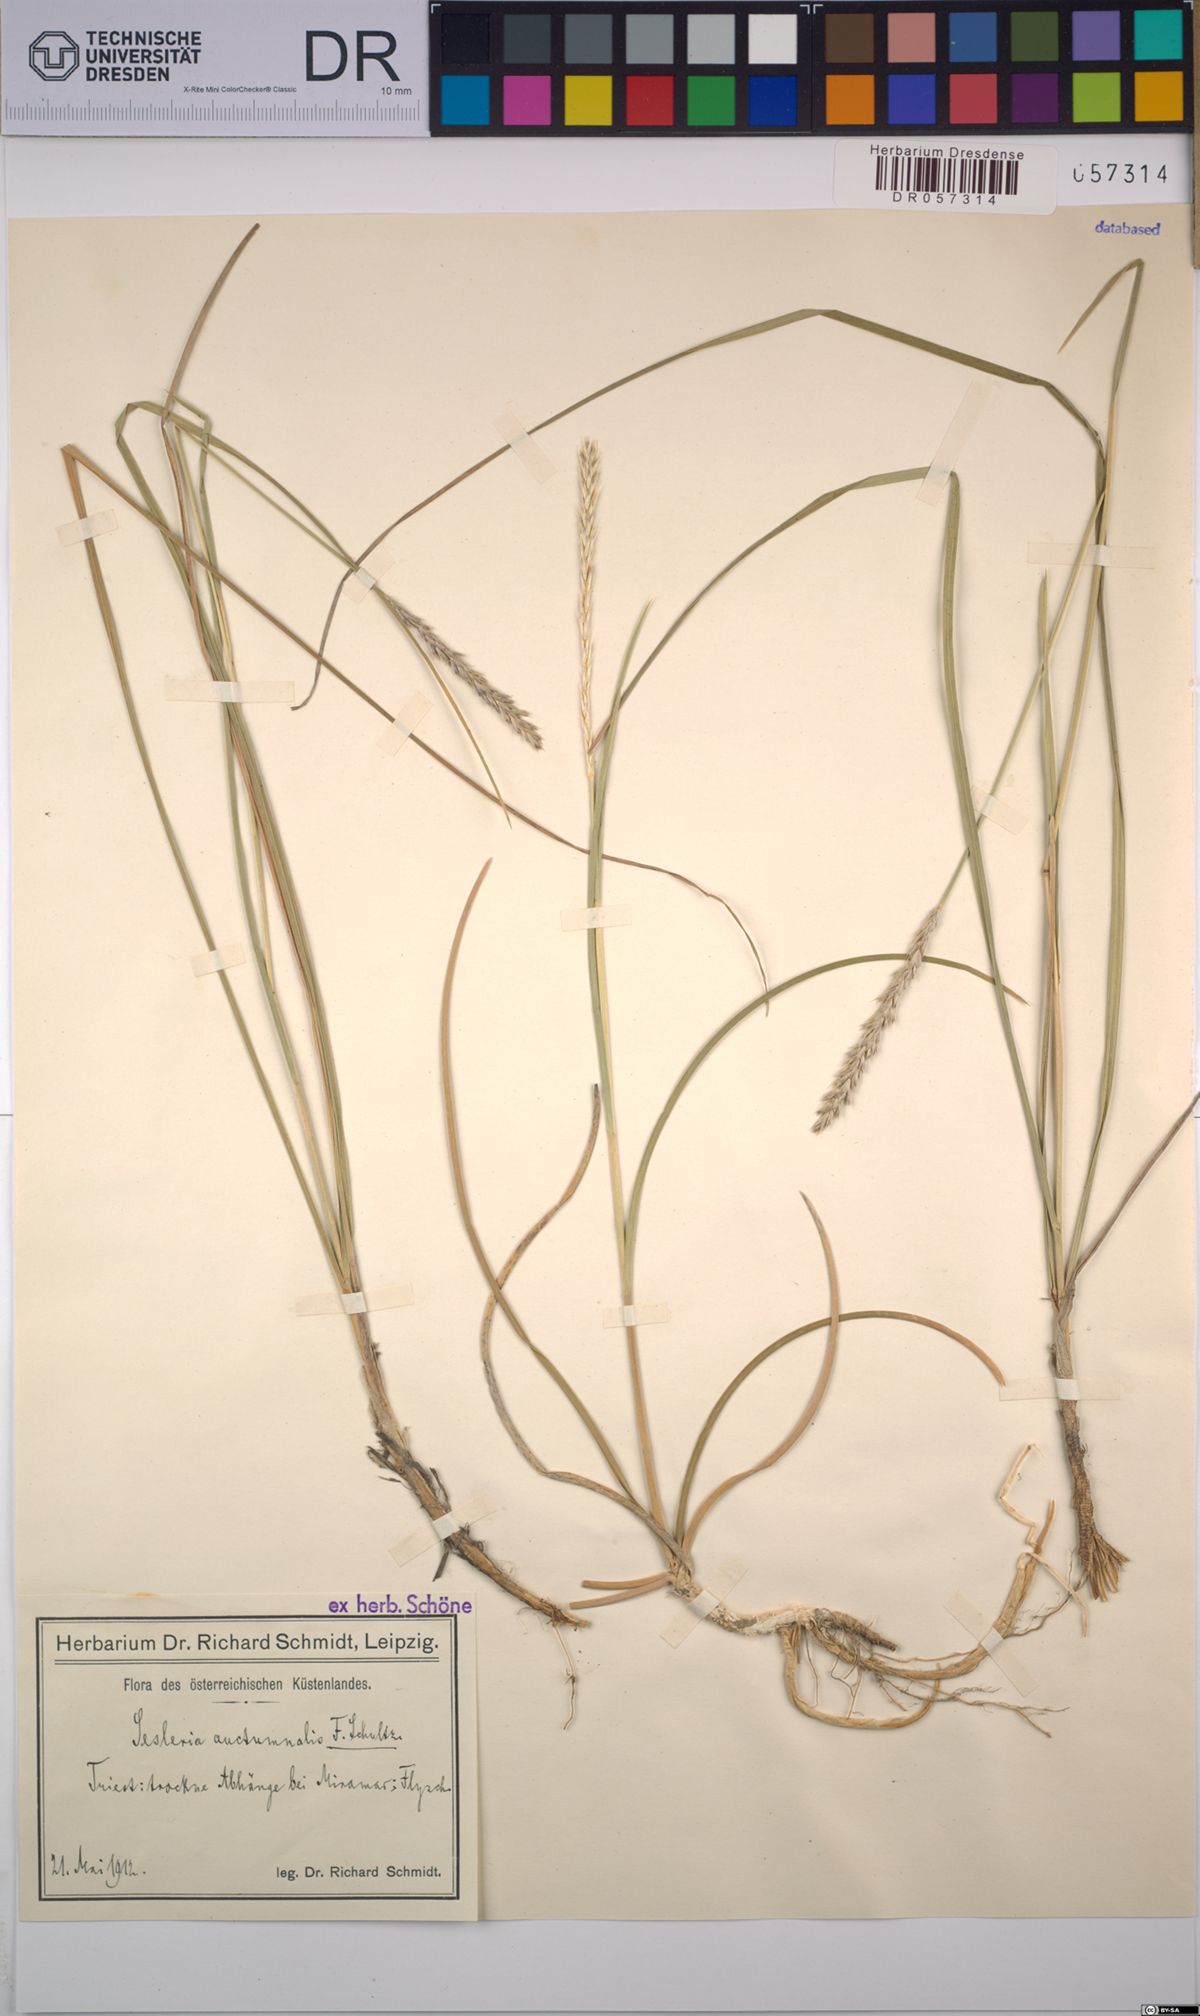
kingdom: Plantae
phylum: Tracheophyta
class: Liliopsida
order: Poales
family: Poaceae
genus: Sesleria
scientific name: Sesleria autumnalis
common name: Autumn moor grass
